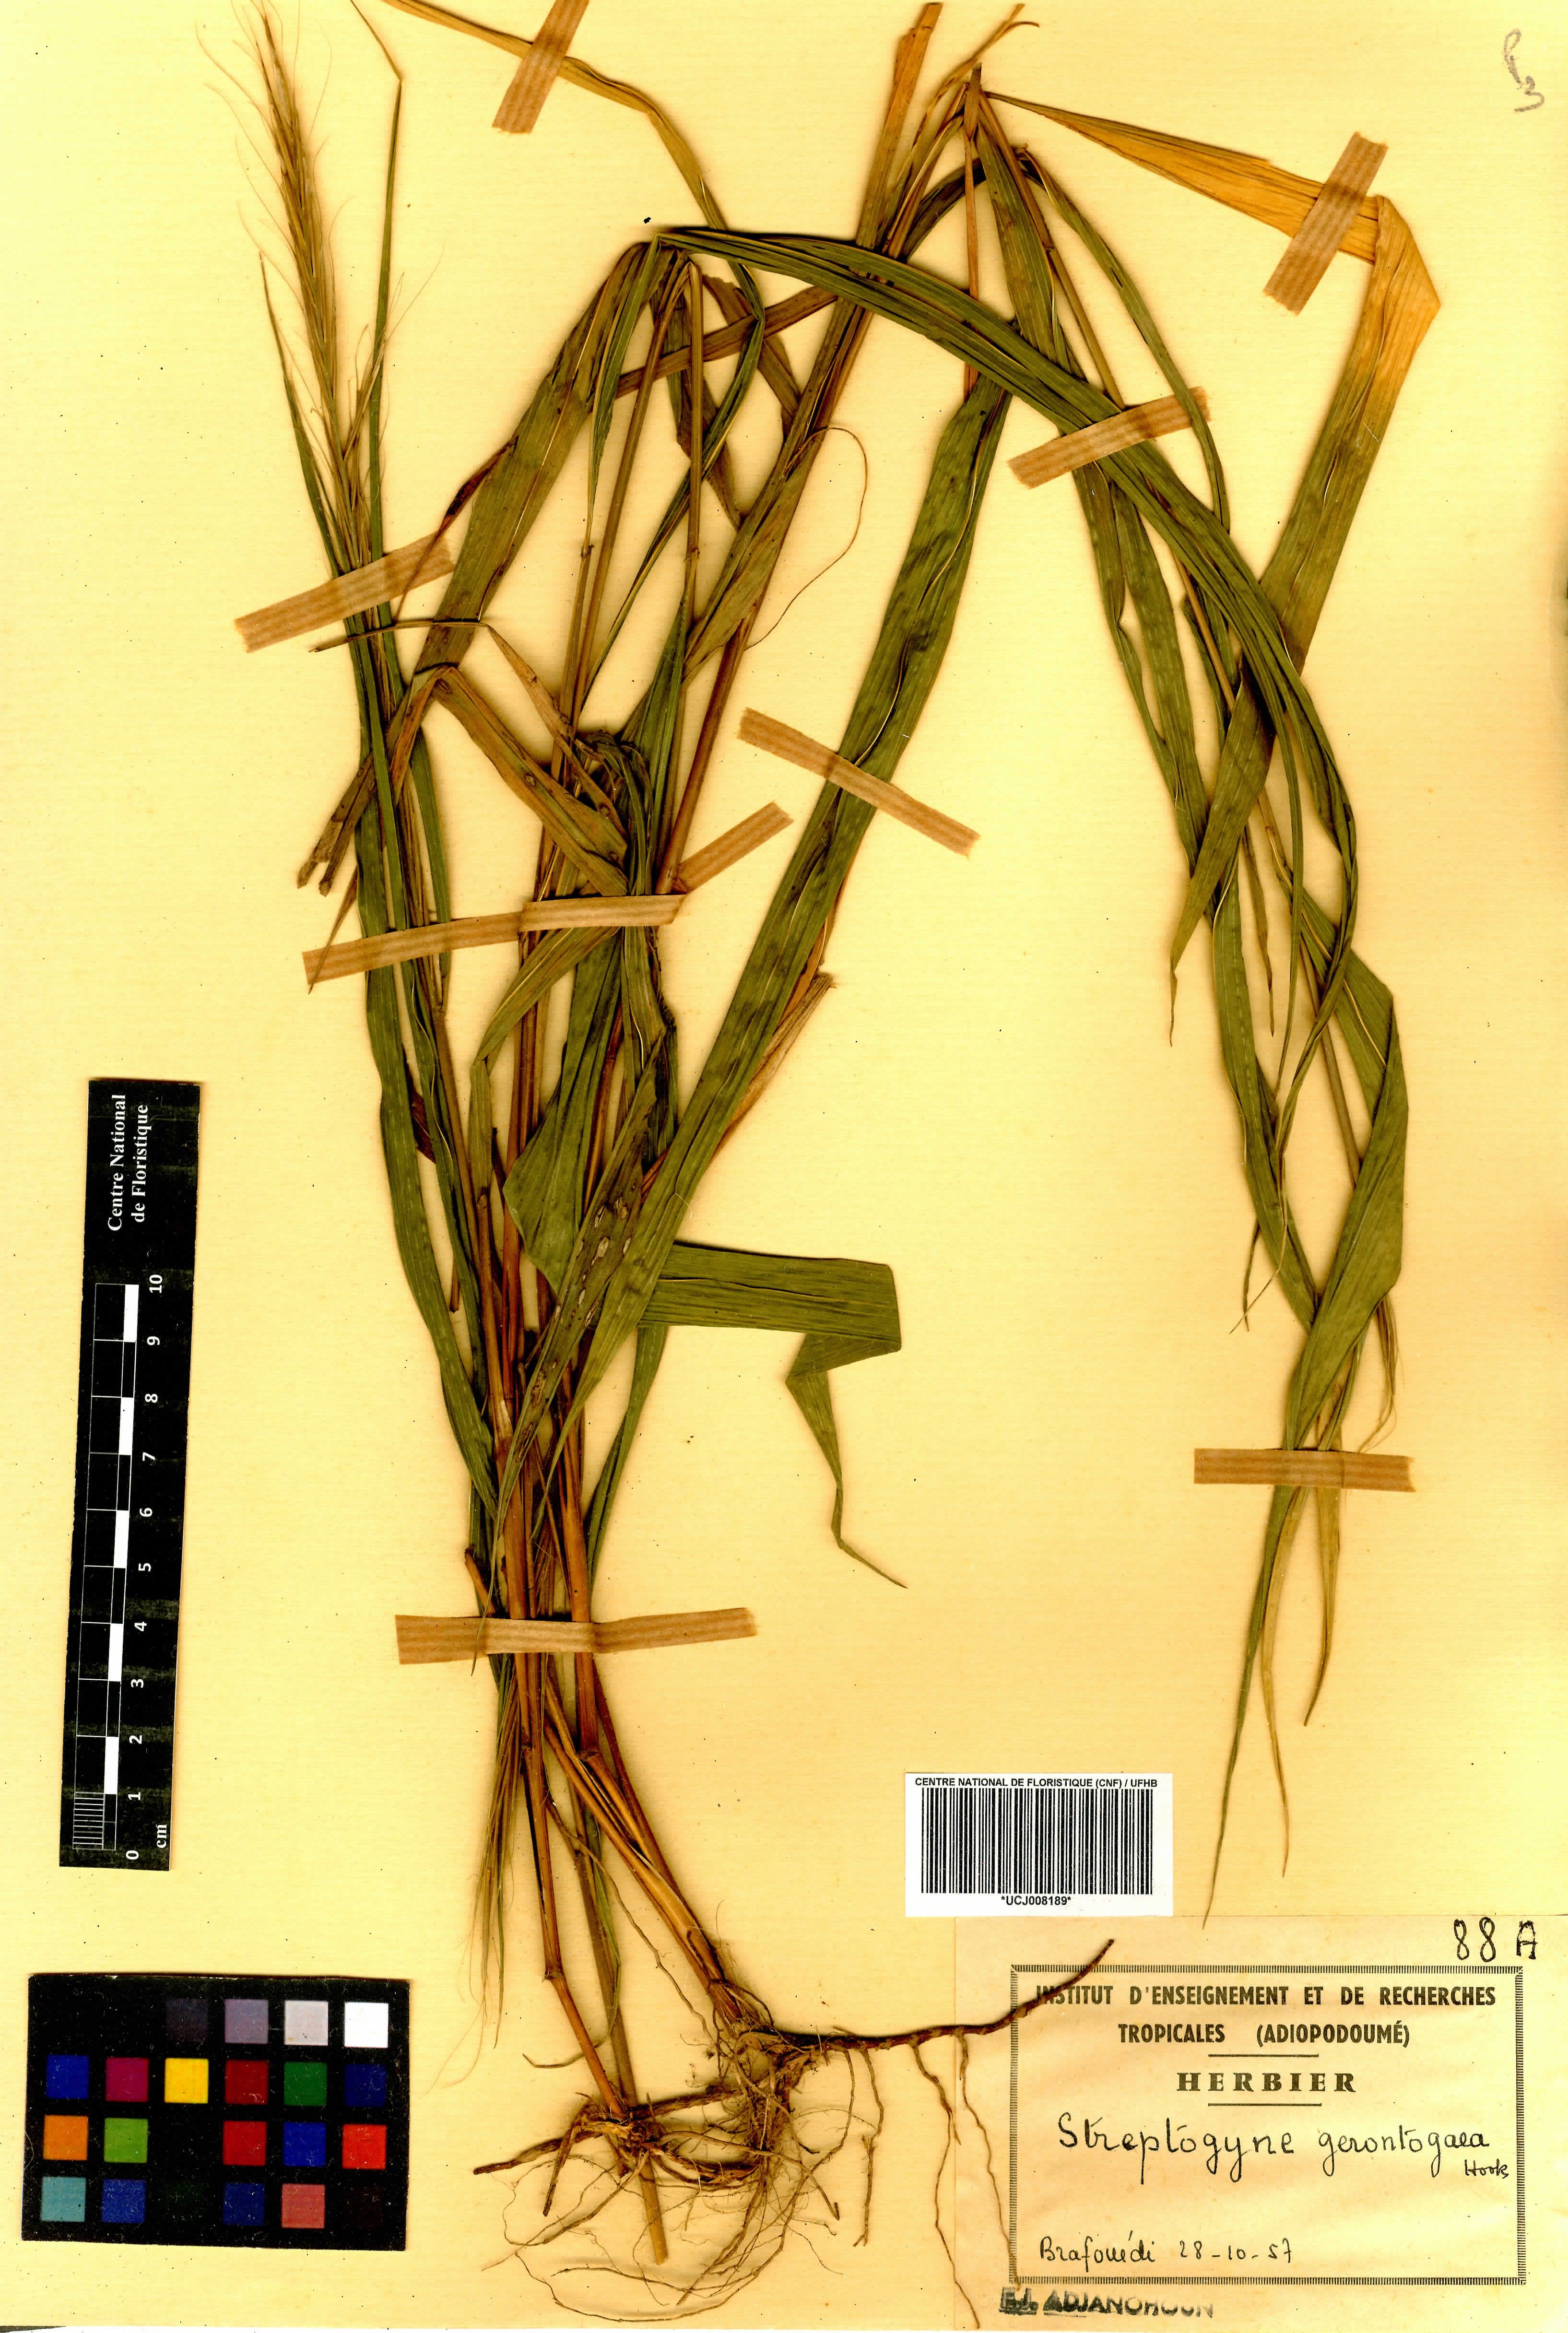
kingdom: Plantae
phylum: Tracheophyta
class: Liliopsida
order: Poales
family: Poaceae
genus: Streptogyna
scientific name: Streptogyna crinita
